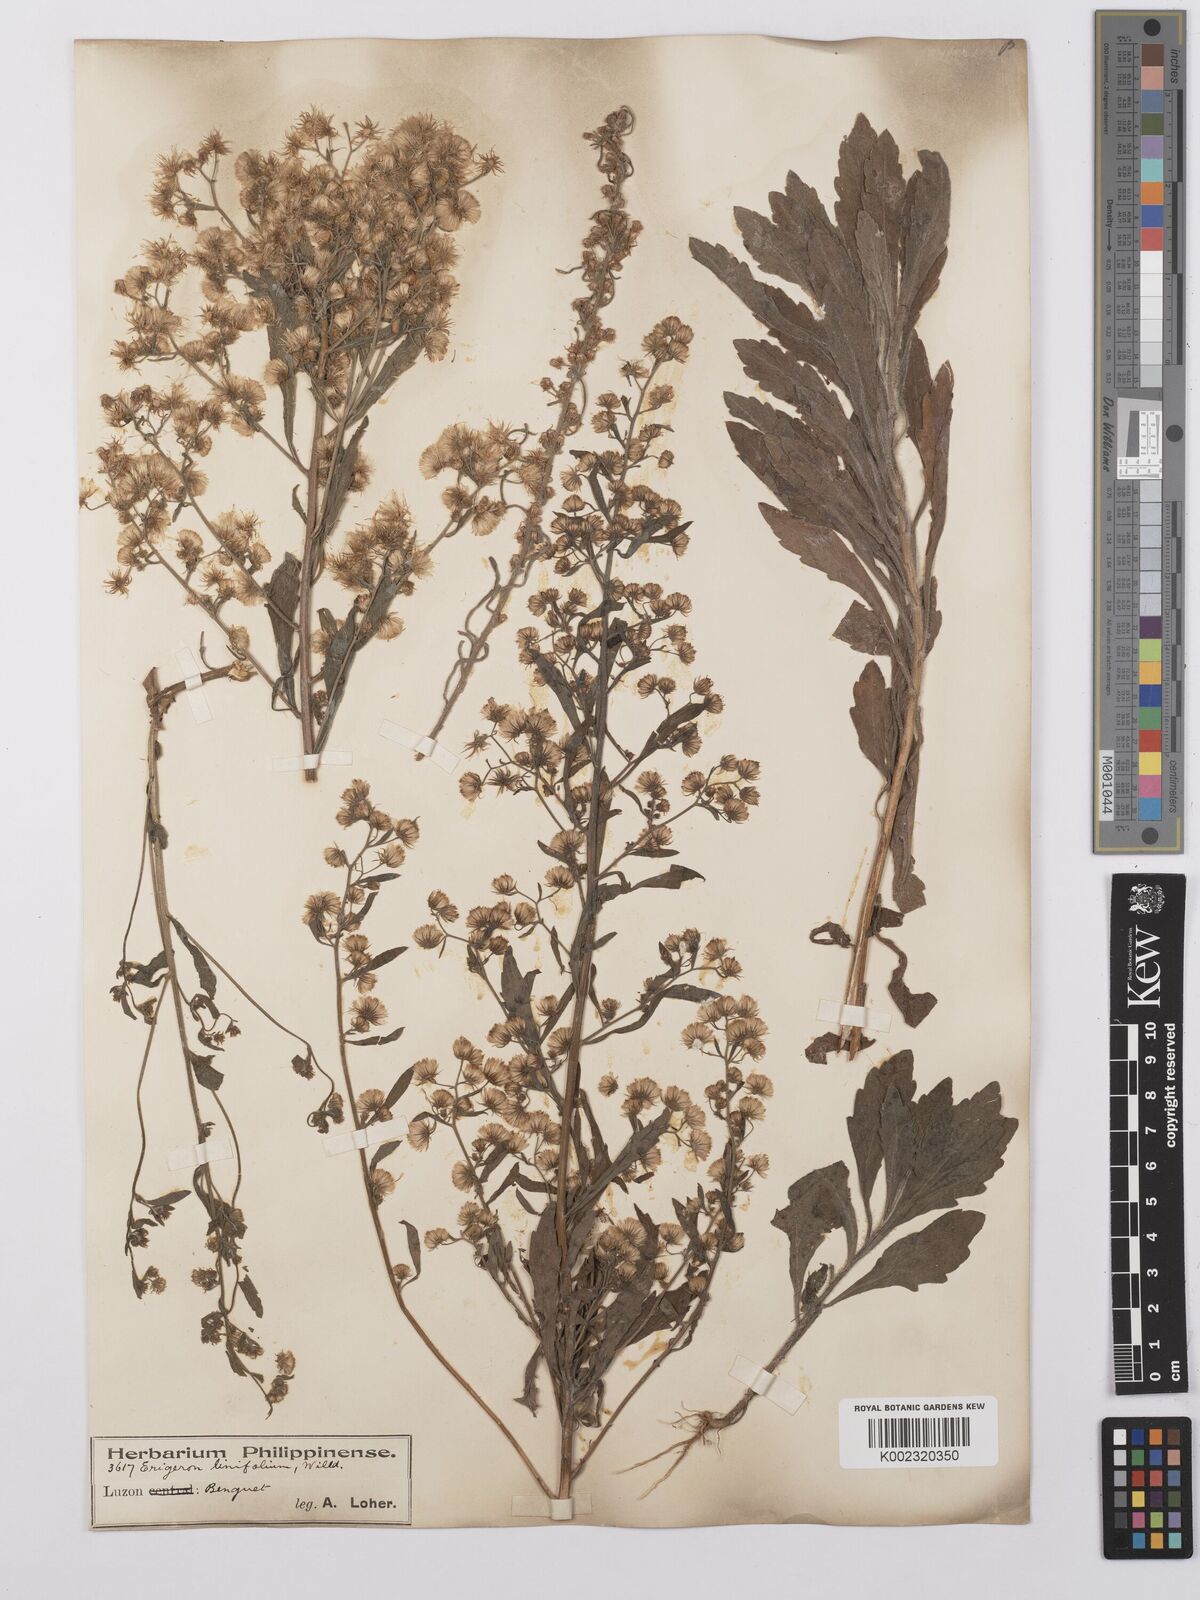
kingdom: Plantae
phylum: Tracheophyta
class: Magnoliopsida
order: Asterales
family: Asteraceae
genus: Erigeron
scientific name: Erigeron sumatrensis
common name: Daisy
